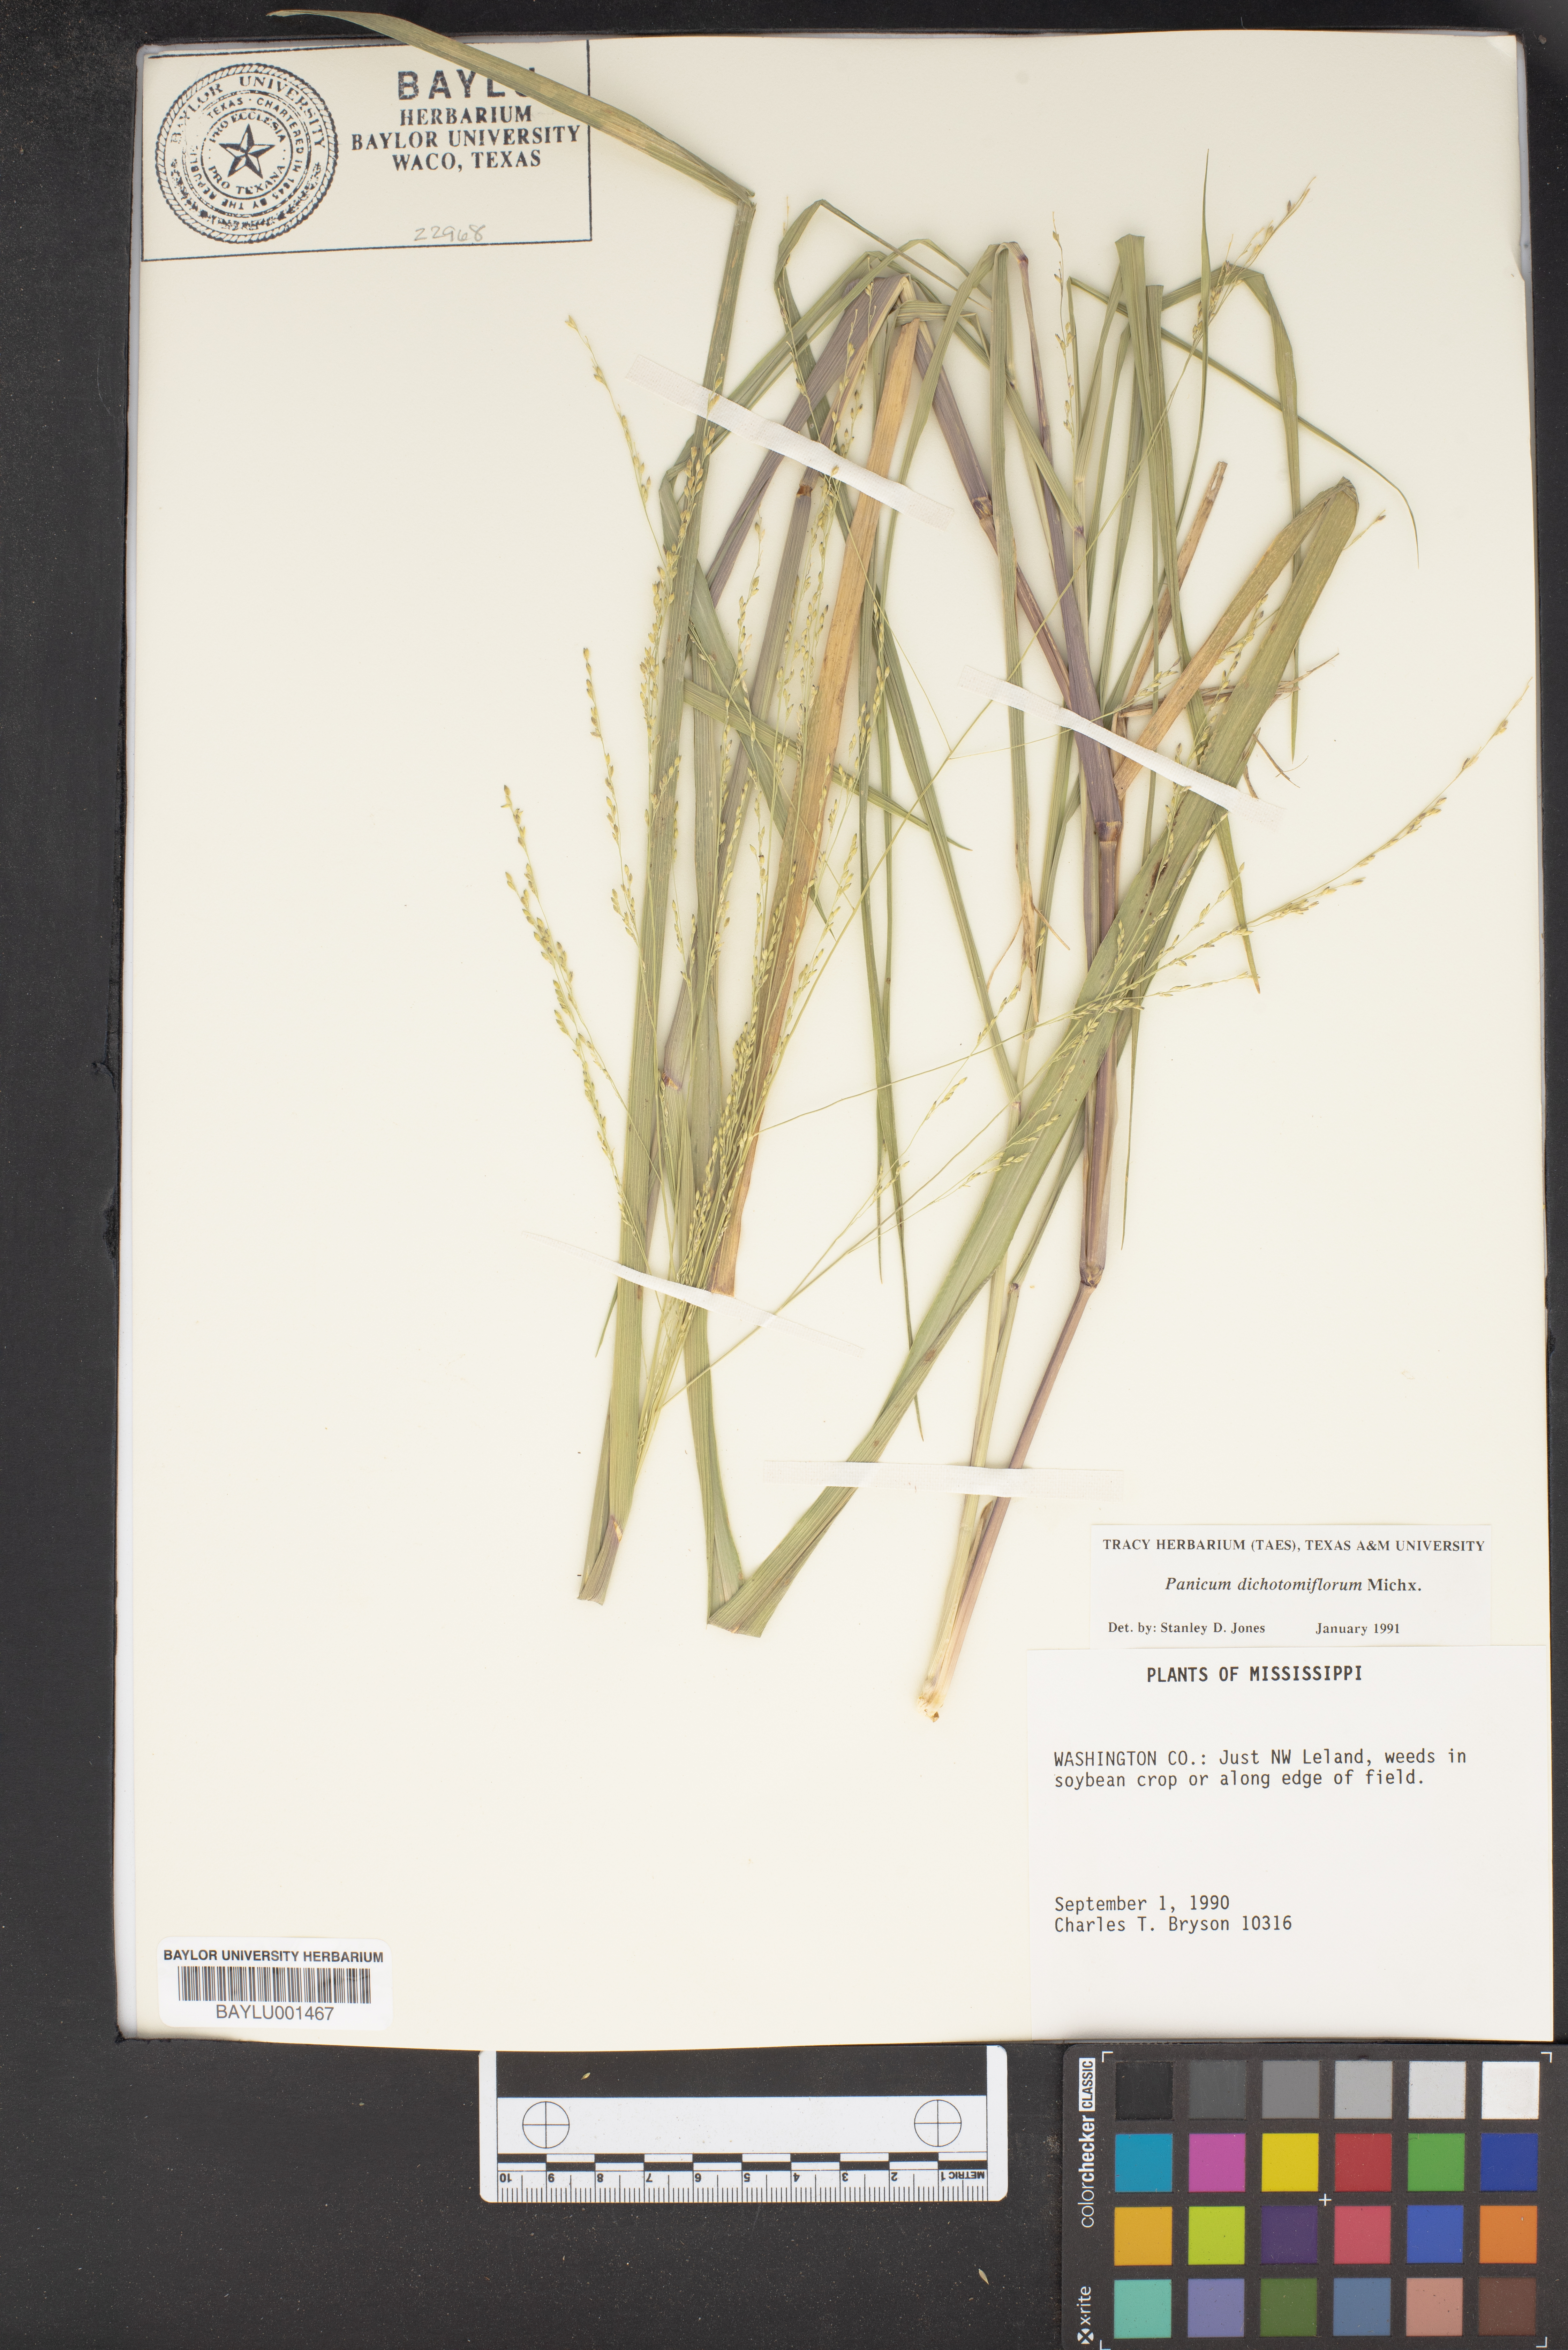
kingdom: Plantae
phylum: Tracheophyta
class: Liliopsida
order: Poales
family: Poaceae
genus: Panicum
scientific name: Panicum dichotomiflorum
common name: Autumn millet
